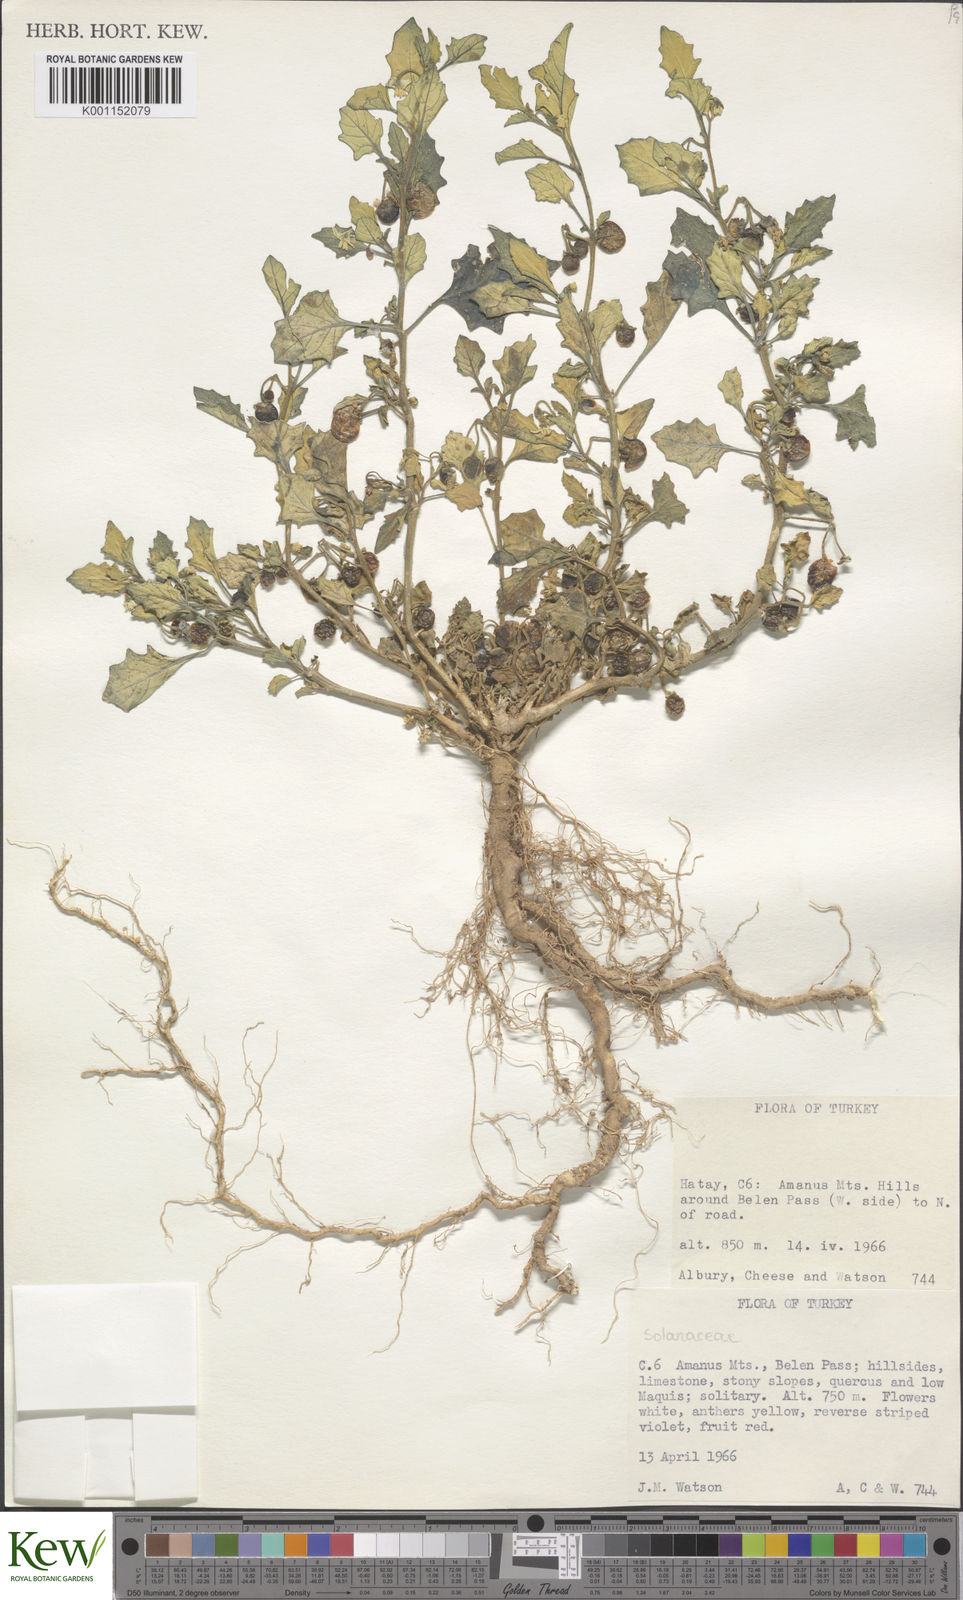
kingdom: Plantae
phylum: Tracheophyta
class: Magnoliopsida
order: Solanales
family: Solanaceae
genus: Solanum
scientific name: Solanum villosum
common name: Red nightshade
